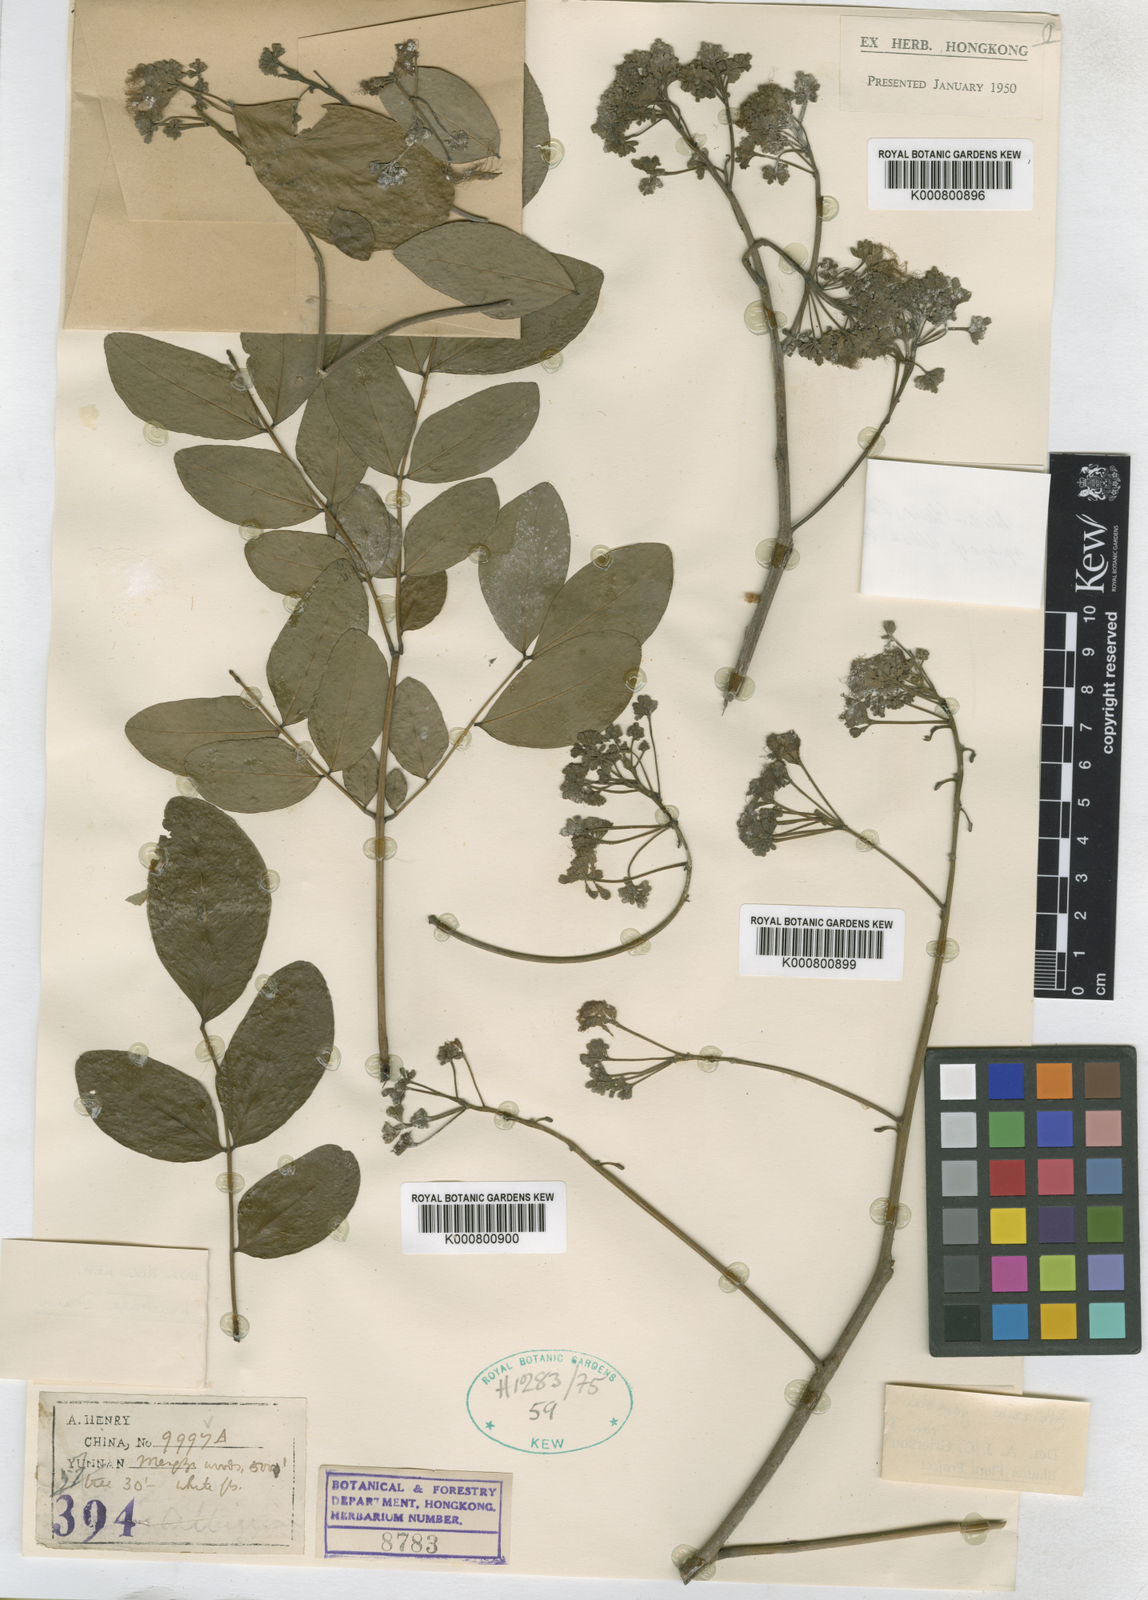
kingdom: Plantae
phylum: Tracheophyta
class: Magnoliopsida
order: Fabales
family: Fabaceae
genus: Albizia
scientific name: Albizia lucidior
